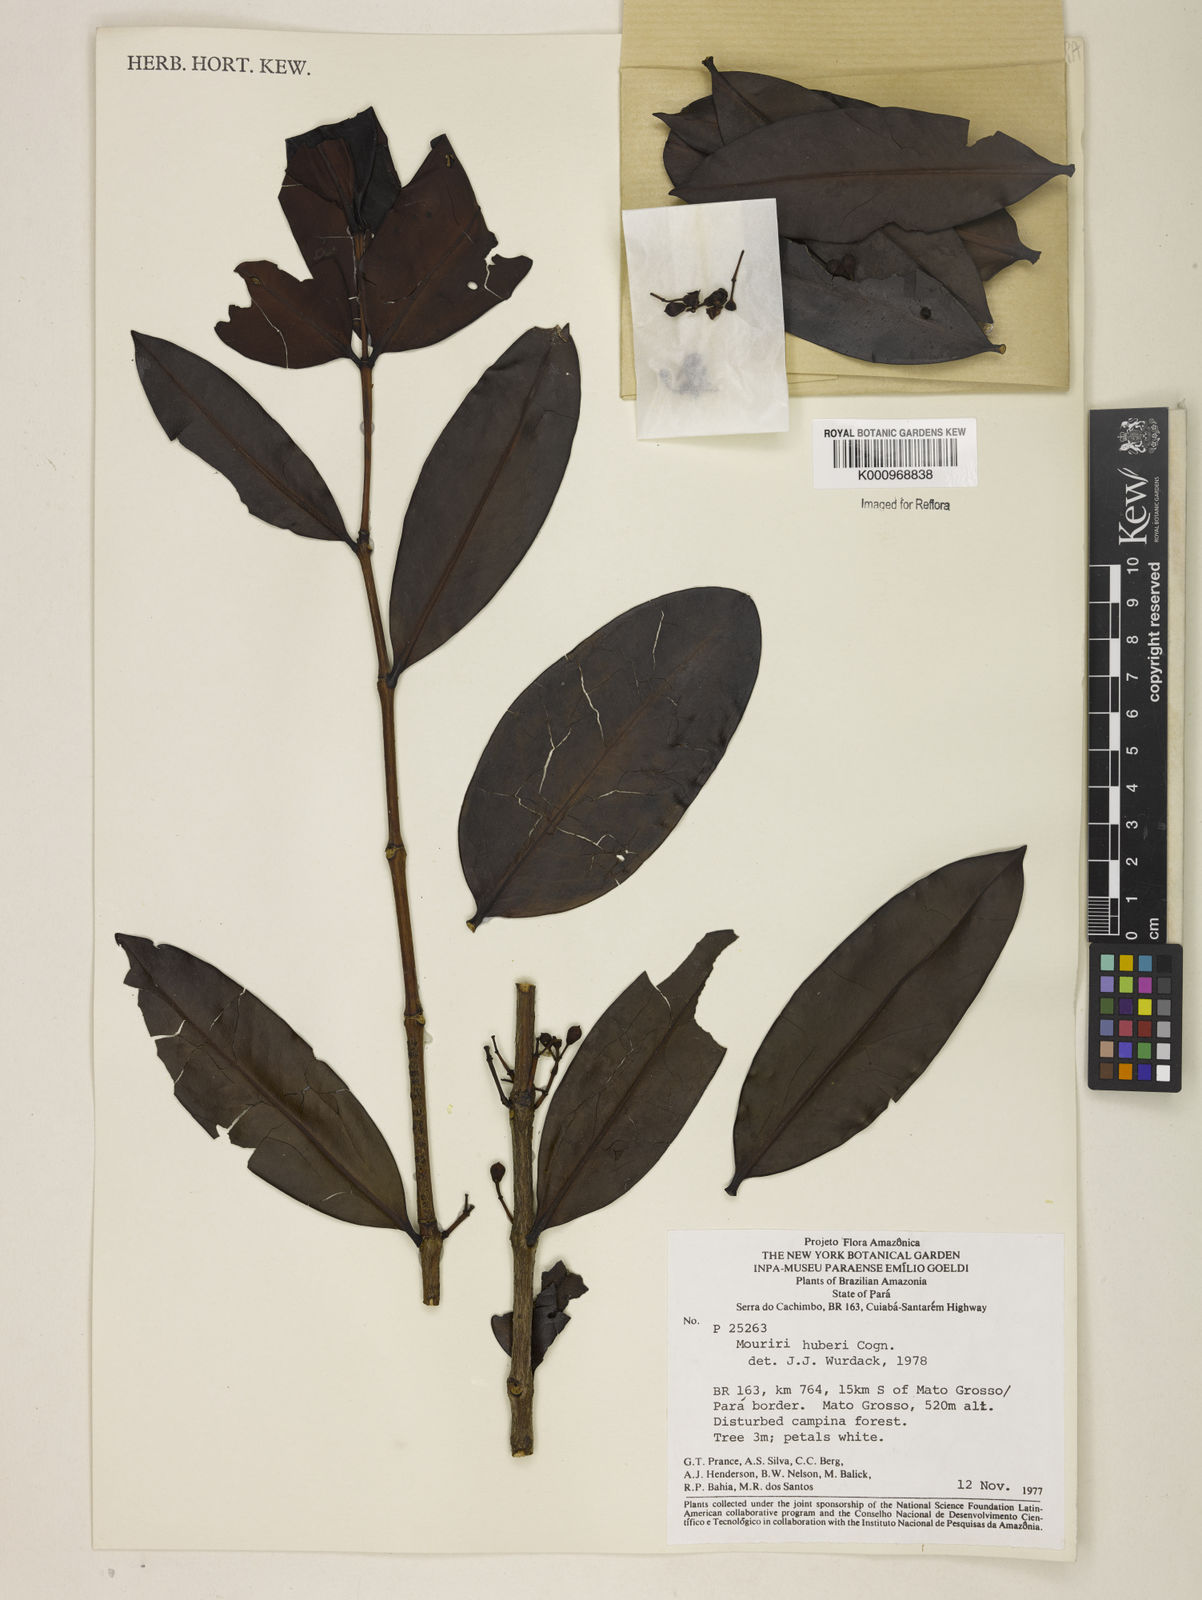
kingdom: Plantae
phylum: Tracheophyta
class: Magnoliopsida
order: Myrtales
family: Melastomataceae
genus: Mouriri
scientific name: Mouriri huberi
